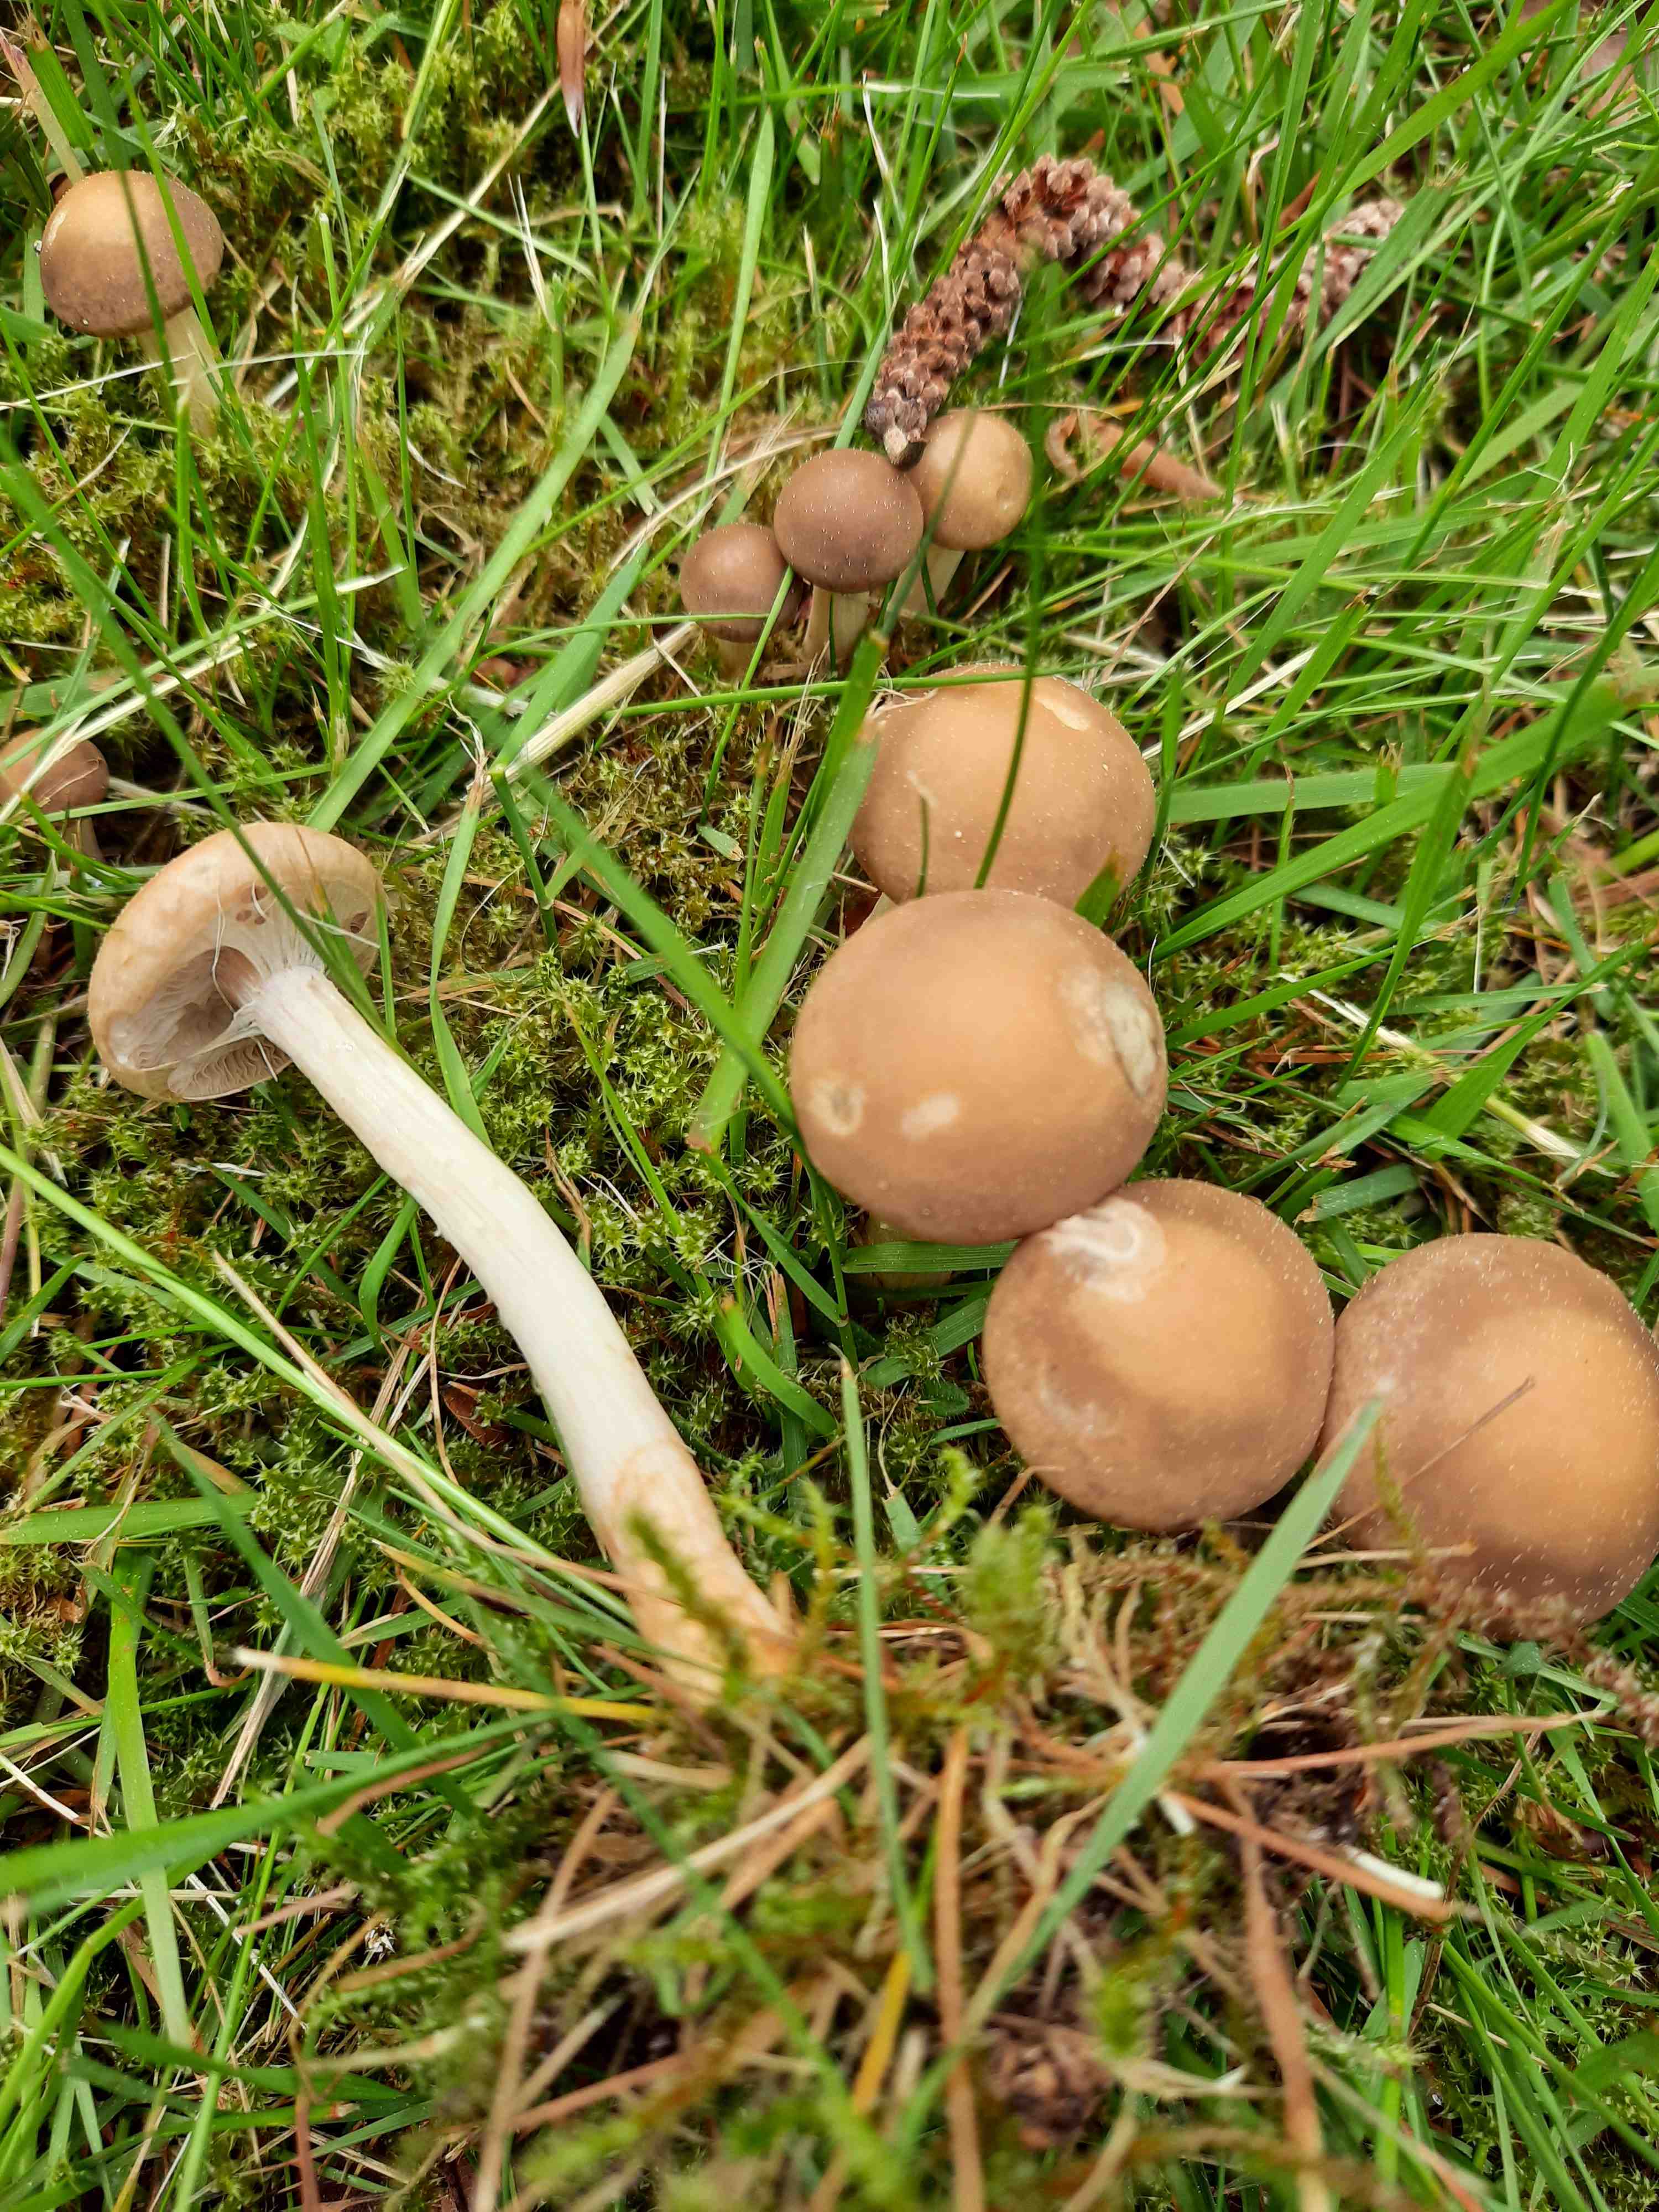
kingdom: Fungi
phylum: Basidiomycota
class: Agaricomycetes
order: Agaricales
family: Strophariaceae
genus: Agrocybe
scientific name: Agrocybe praecox
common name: tidlig agerhat
